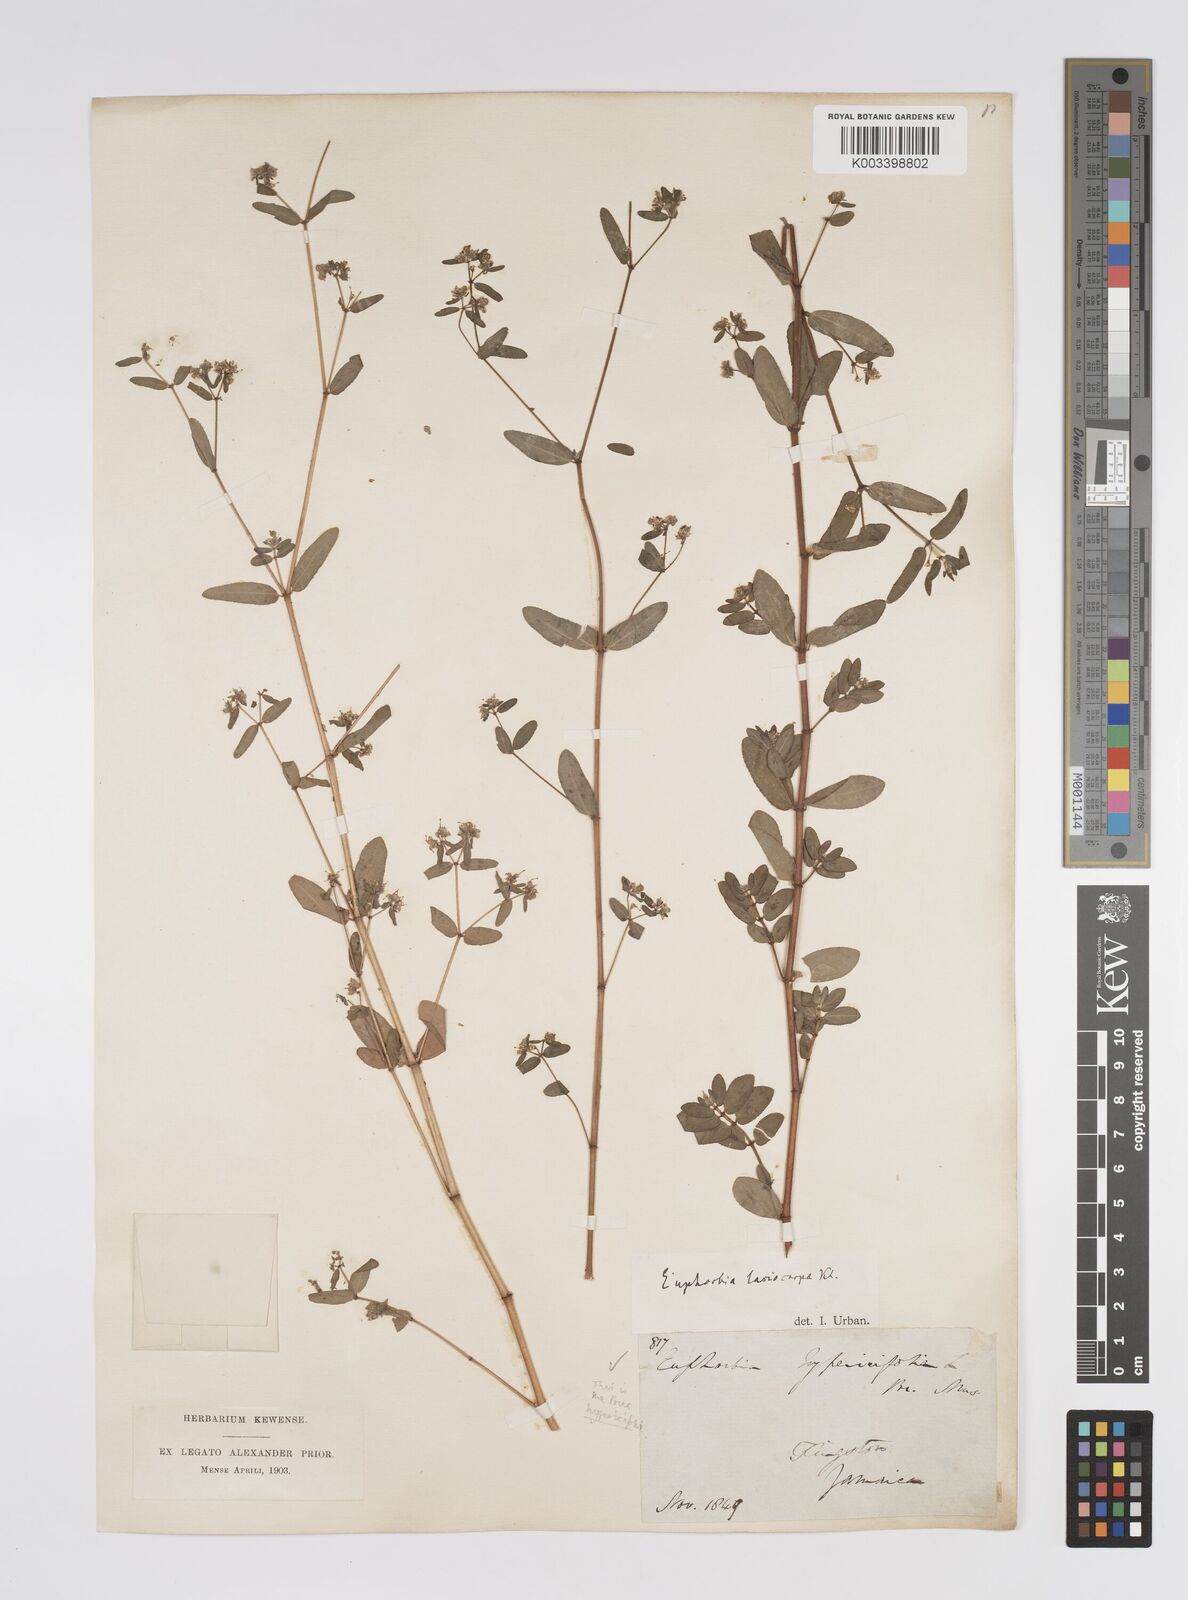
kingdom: Plantae
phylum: Tracheophyta
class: Magnoliopsida
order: Malpighiales
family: Euphorbiaceae
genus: Euphorbia
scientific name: Euphorbia lasiocarpa
